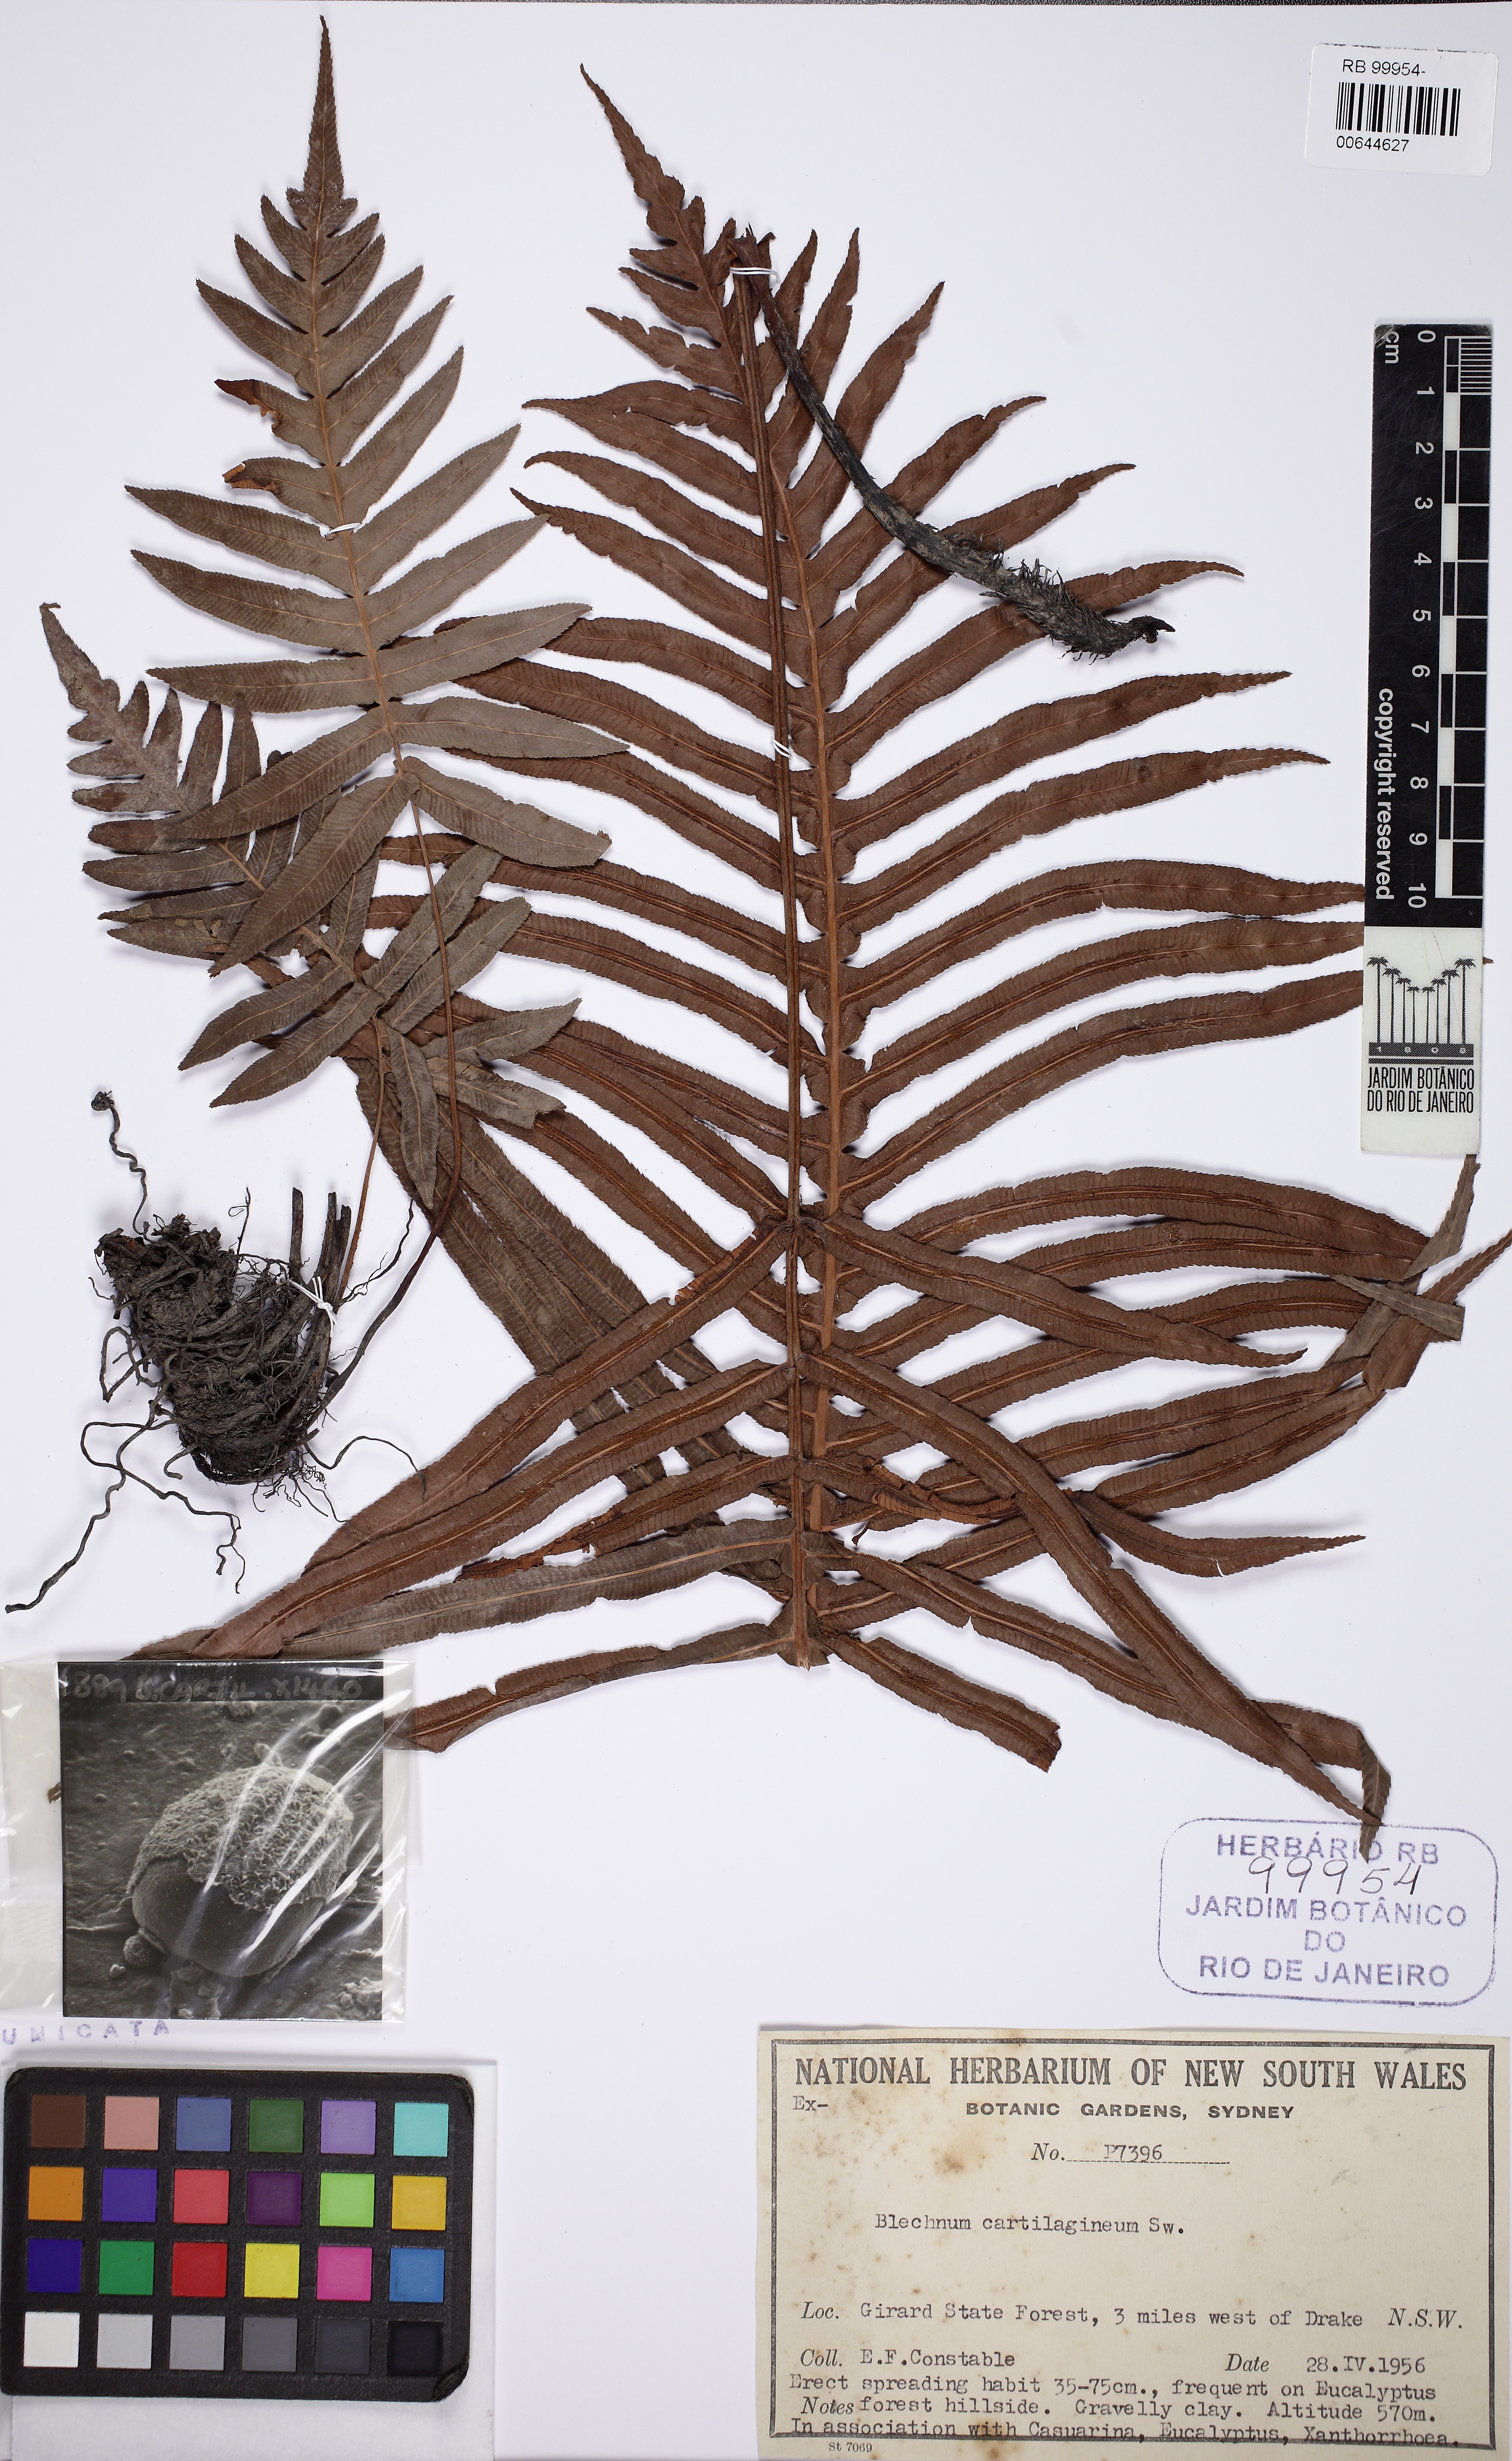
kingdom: Plantae
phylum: Tracheophyta
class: Polypodiopsida
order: Polypodiales
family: Blechnaceae
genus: Oceaniopteris
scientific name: Oceaniopteris cartilaginea
